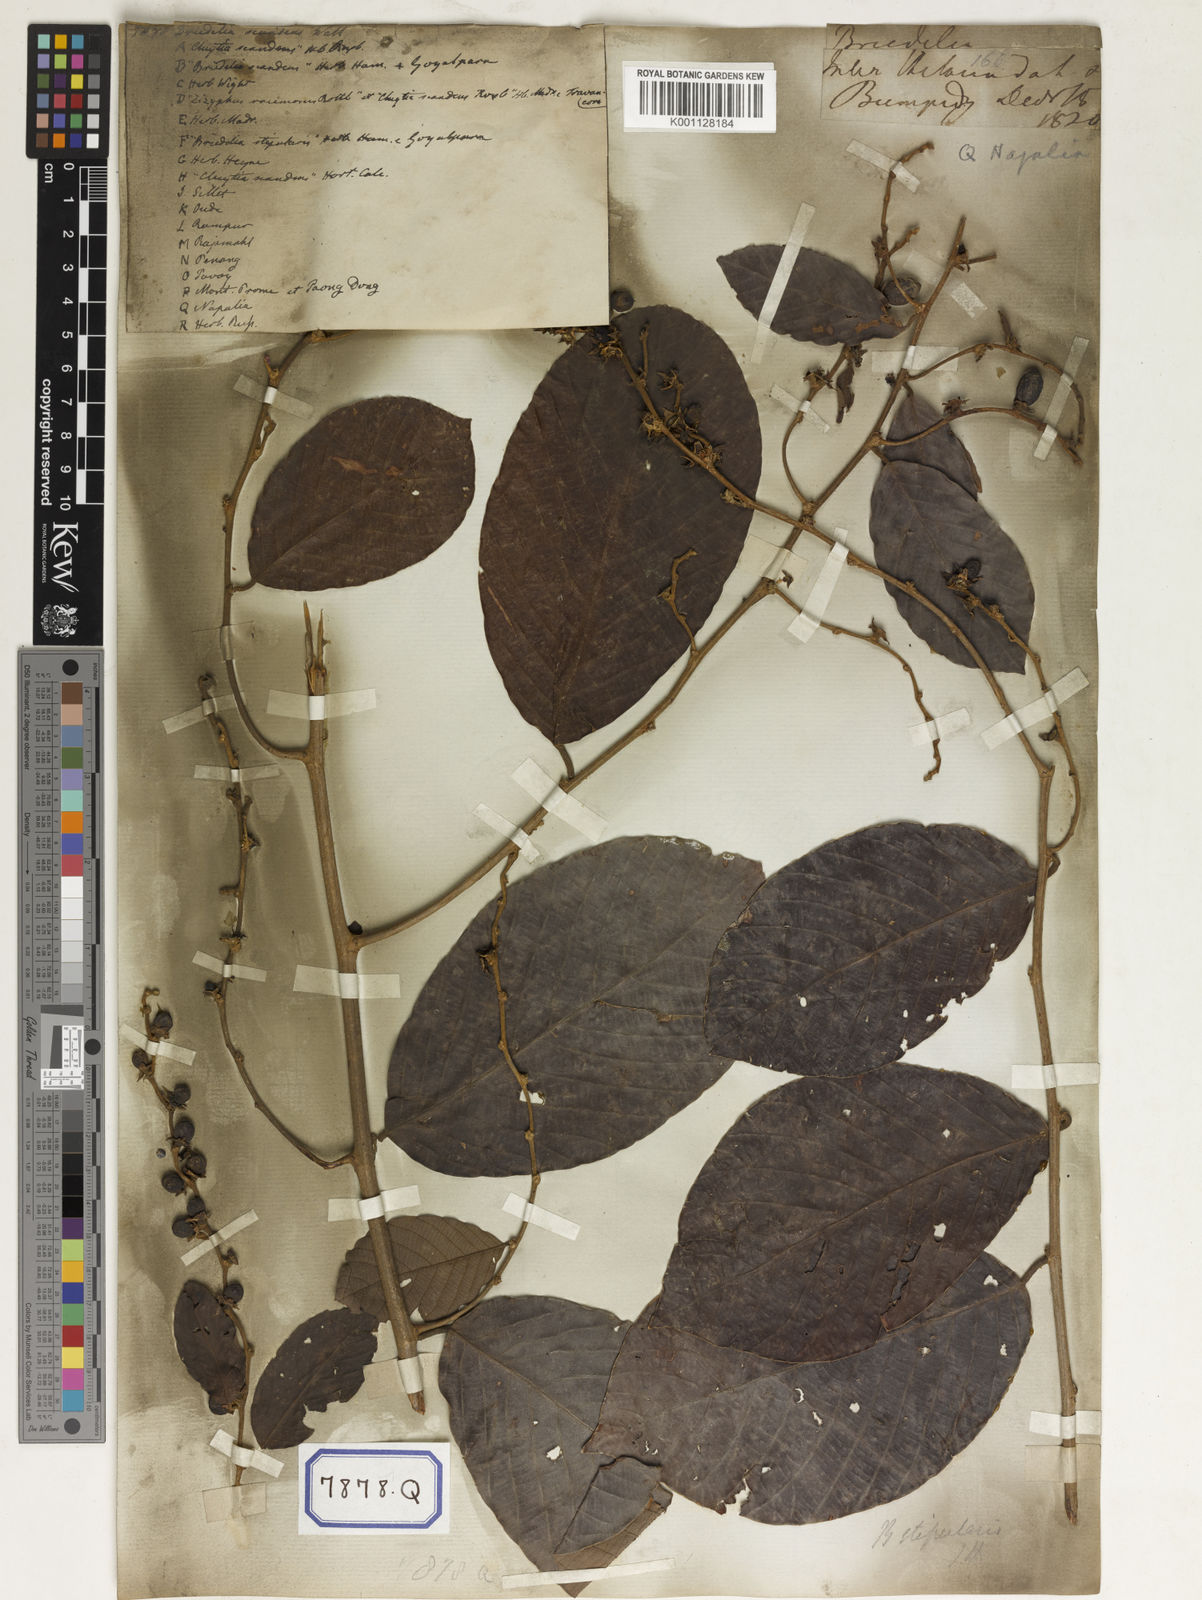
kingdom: Plantae
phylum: Tracheophyta
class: Magnoliopsida
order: Malpighiales
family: Phyllanthaceae
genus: Bridelia
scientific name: Bridelia
